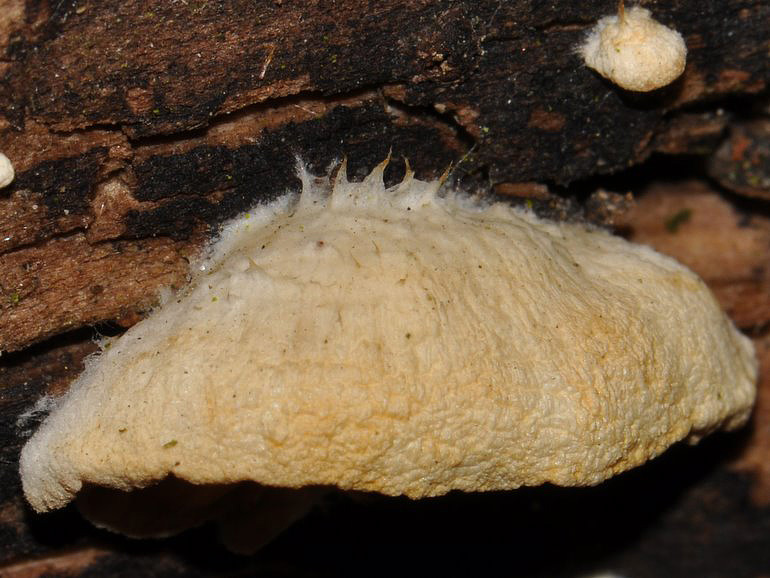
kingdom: Fungi
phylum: Basidiomycota
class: Agaricomycetes
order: Agaricales
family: Crepidotaceae
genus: Crepidotus
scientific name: Crepidotus cesatii
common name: almindelig muslingesvamp
